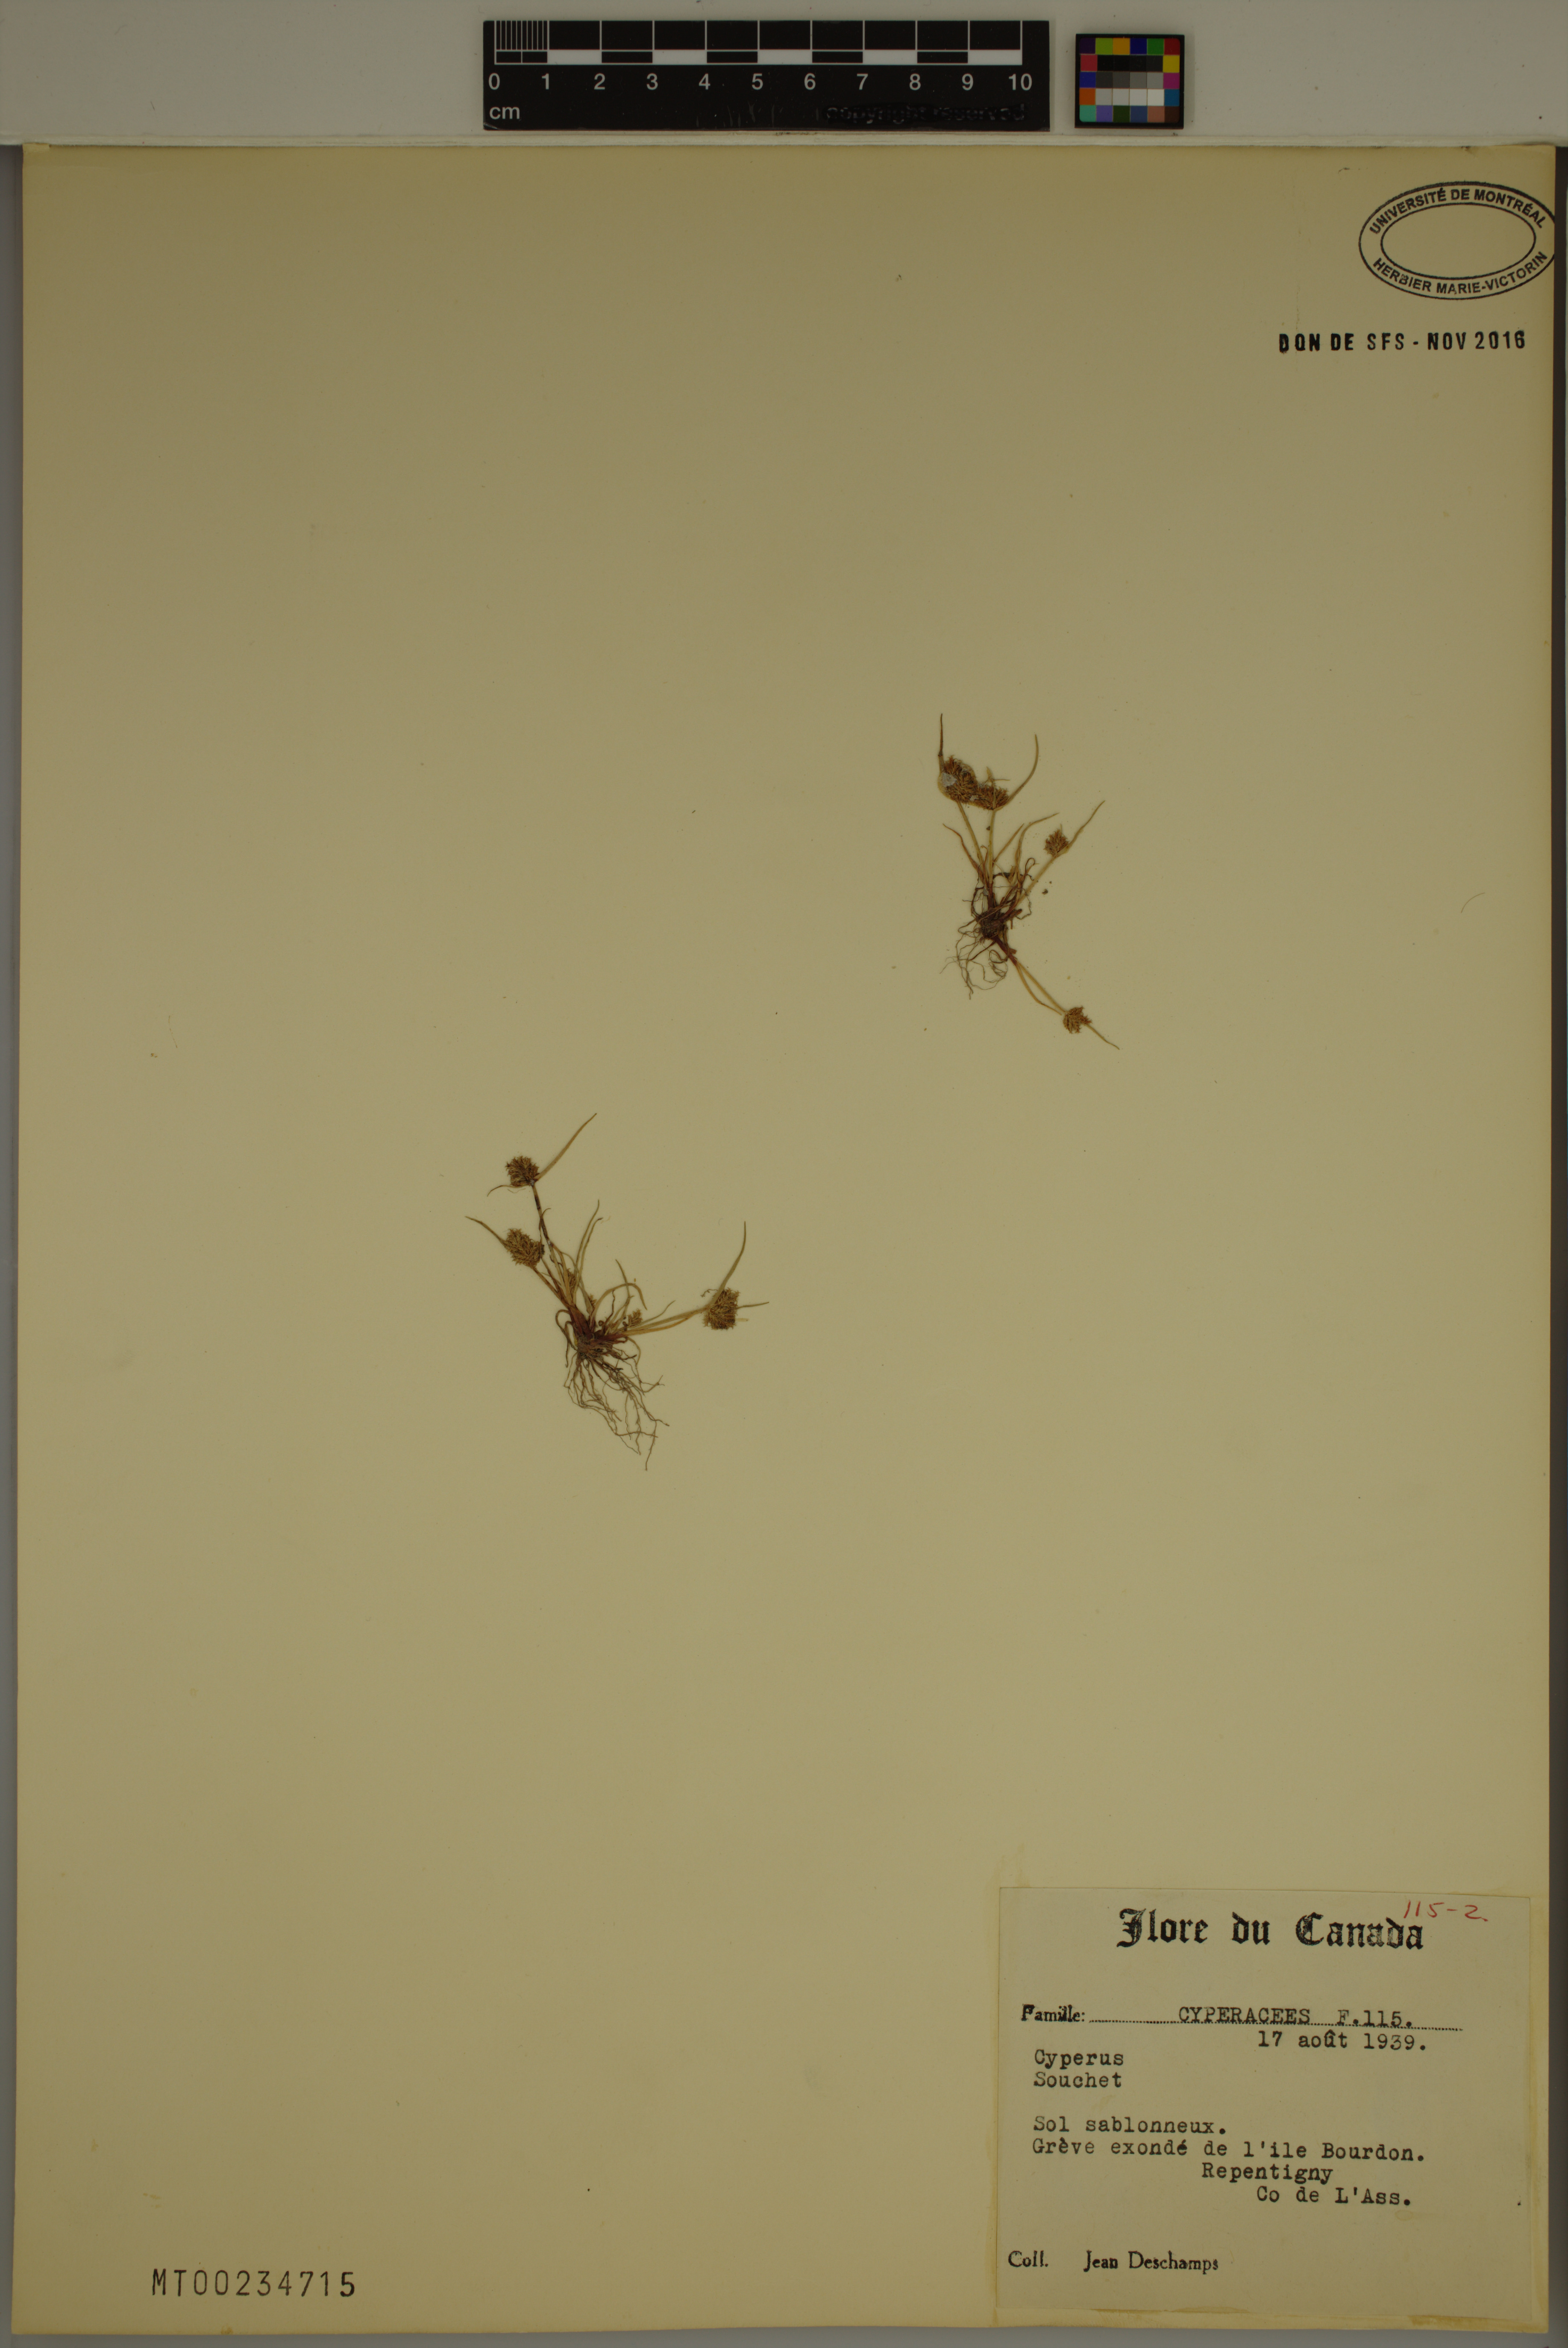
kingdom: Plantae
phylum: Tracheophyta
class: Liliopsida
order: Poales
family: Cyperaceae
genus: Cyperus
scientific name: Cyperus
